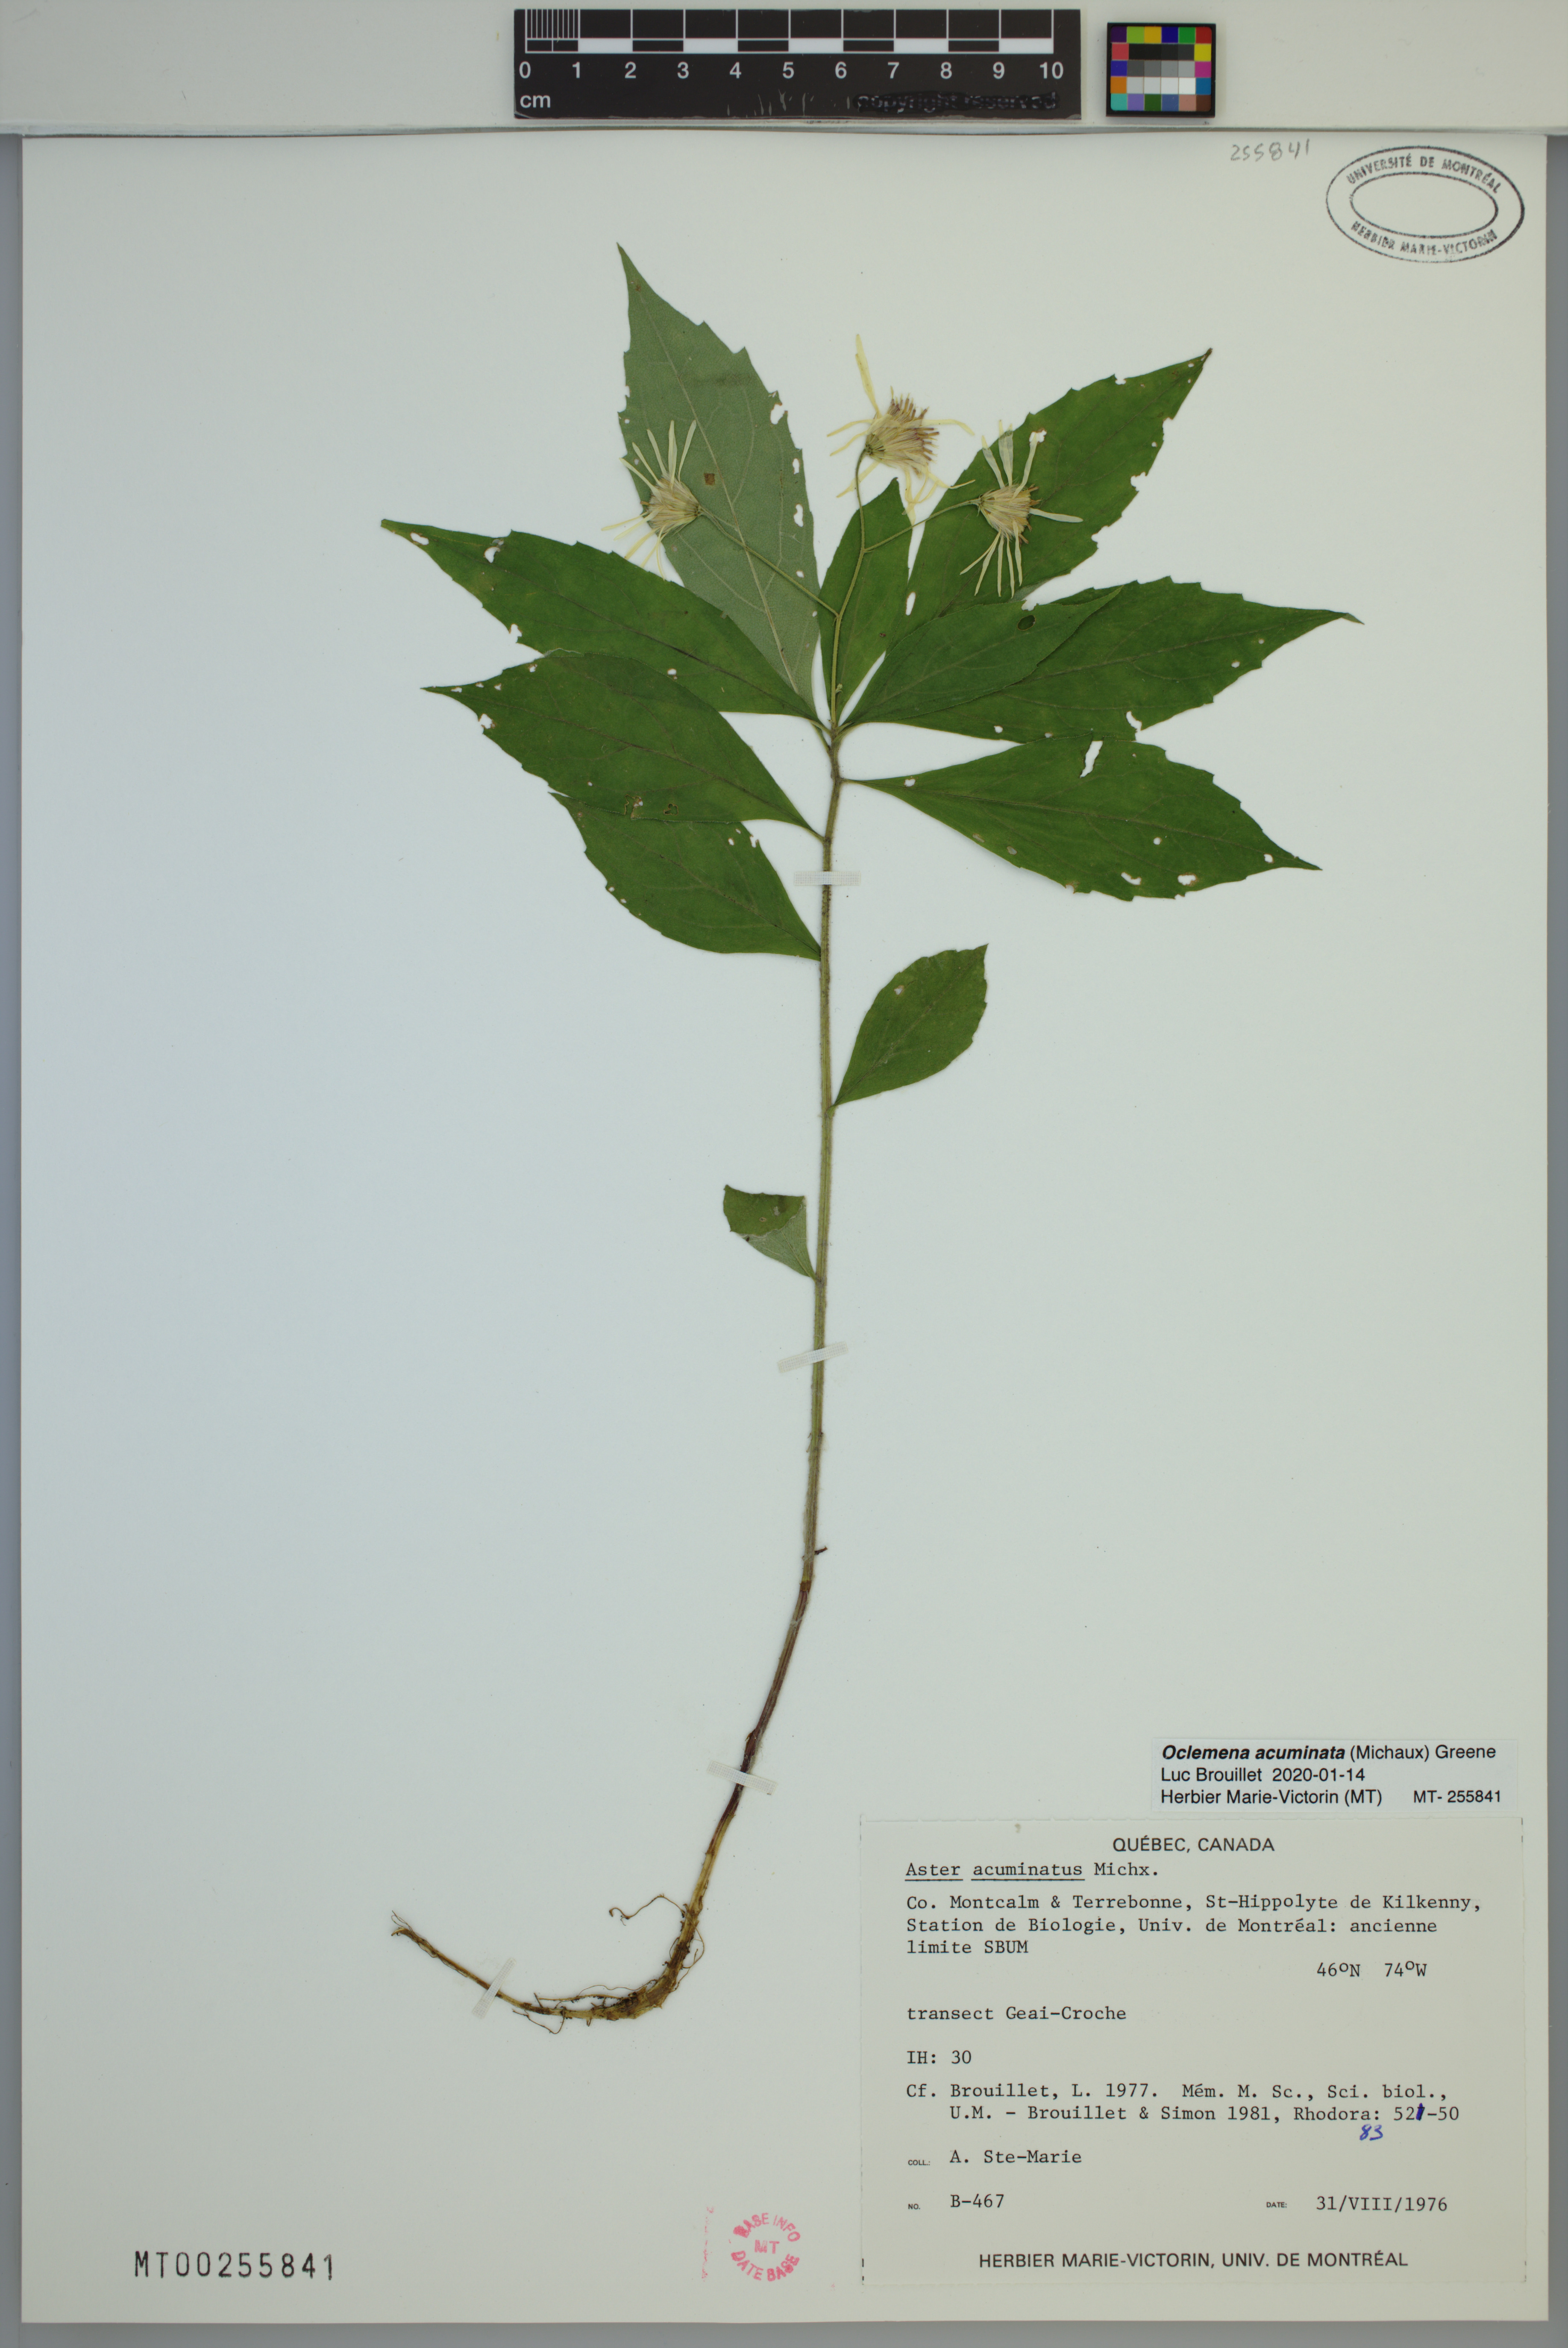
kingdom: Plantae
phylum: Tracheophyta
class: Magnoliopsida
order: Asterales
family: Asteraceae
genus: Oclemena
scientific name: Oclemena acuminata
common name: Mountain aster
